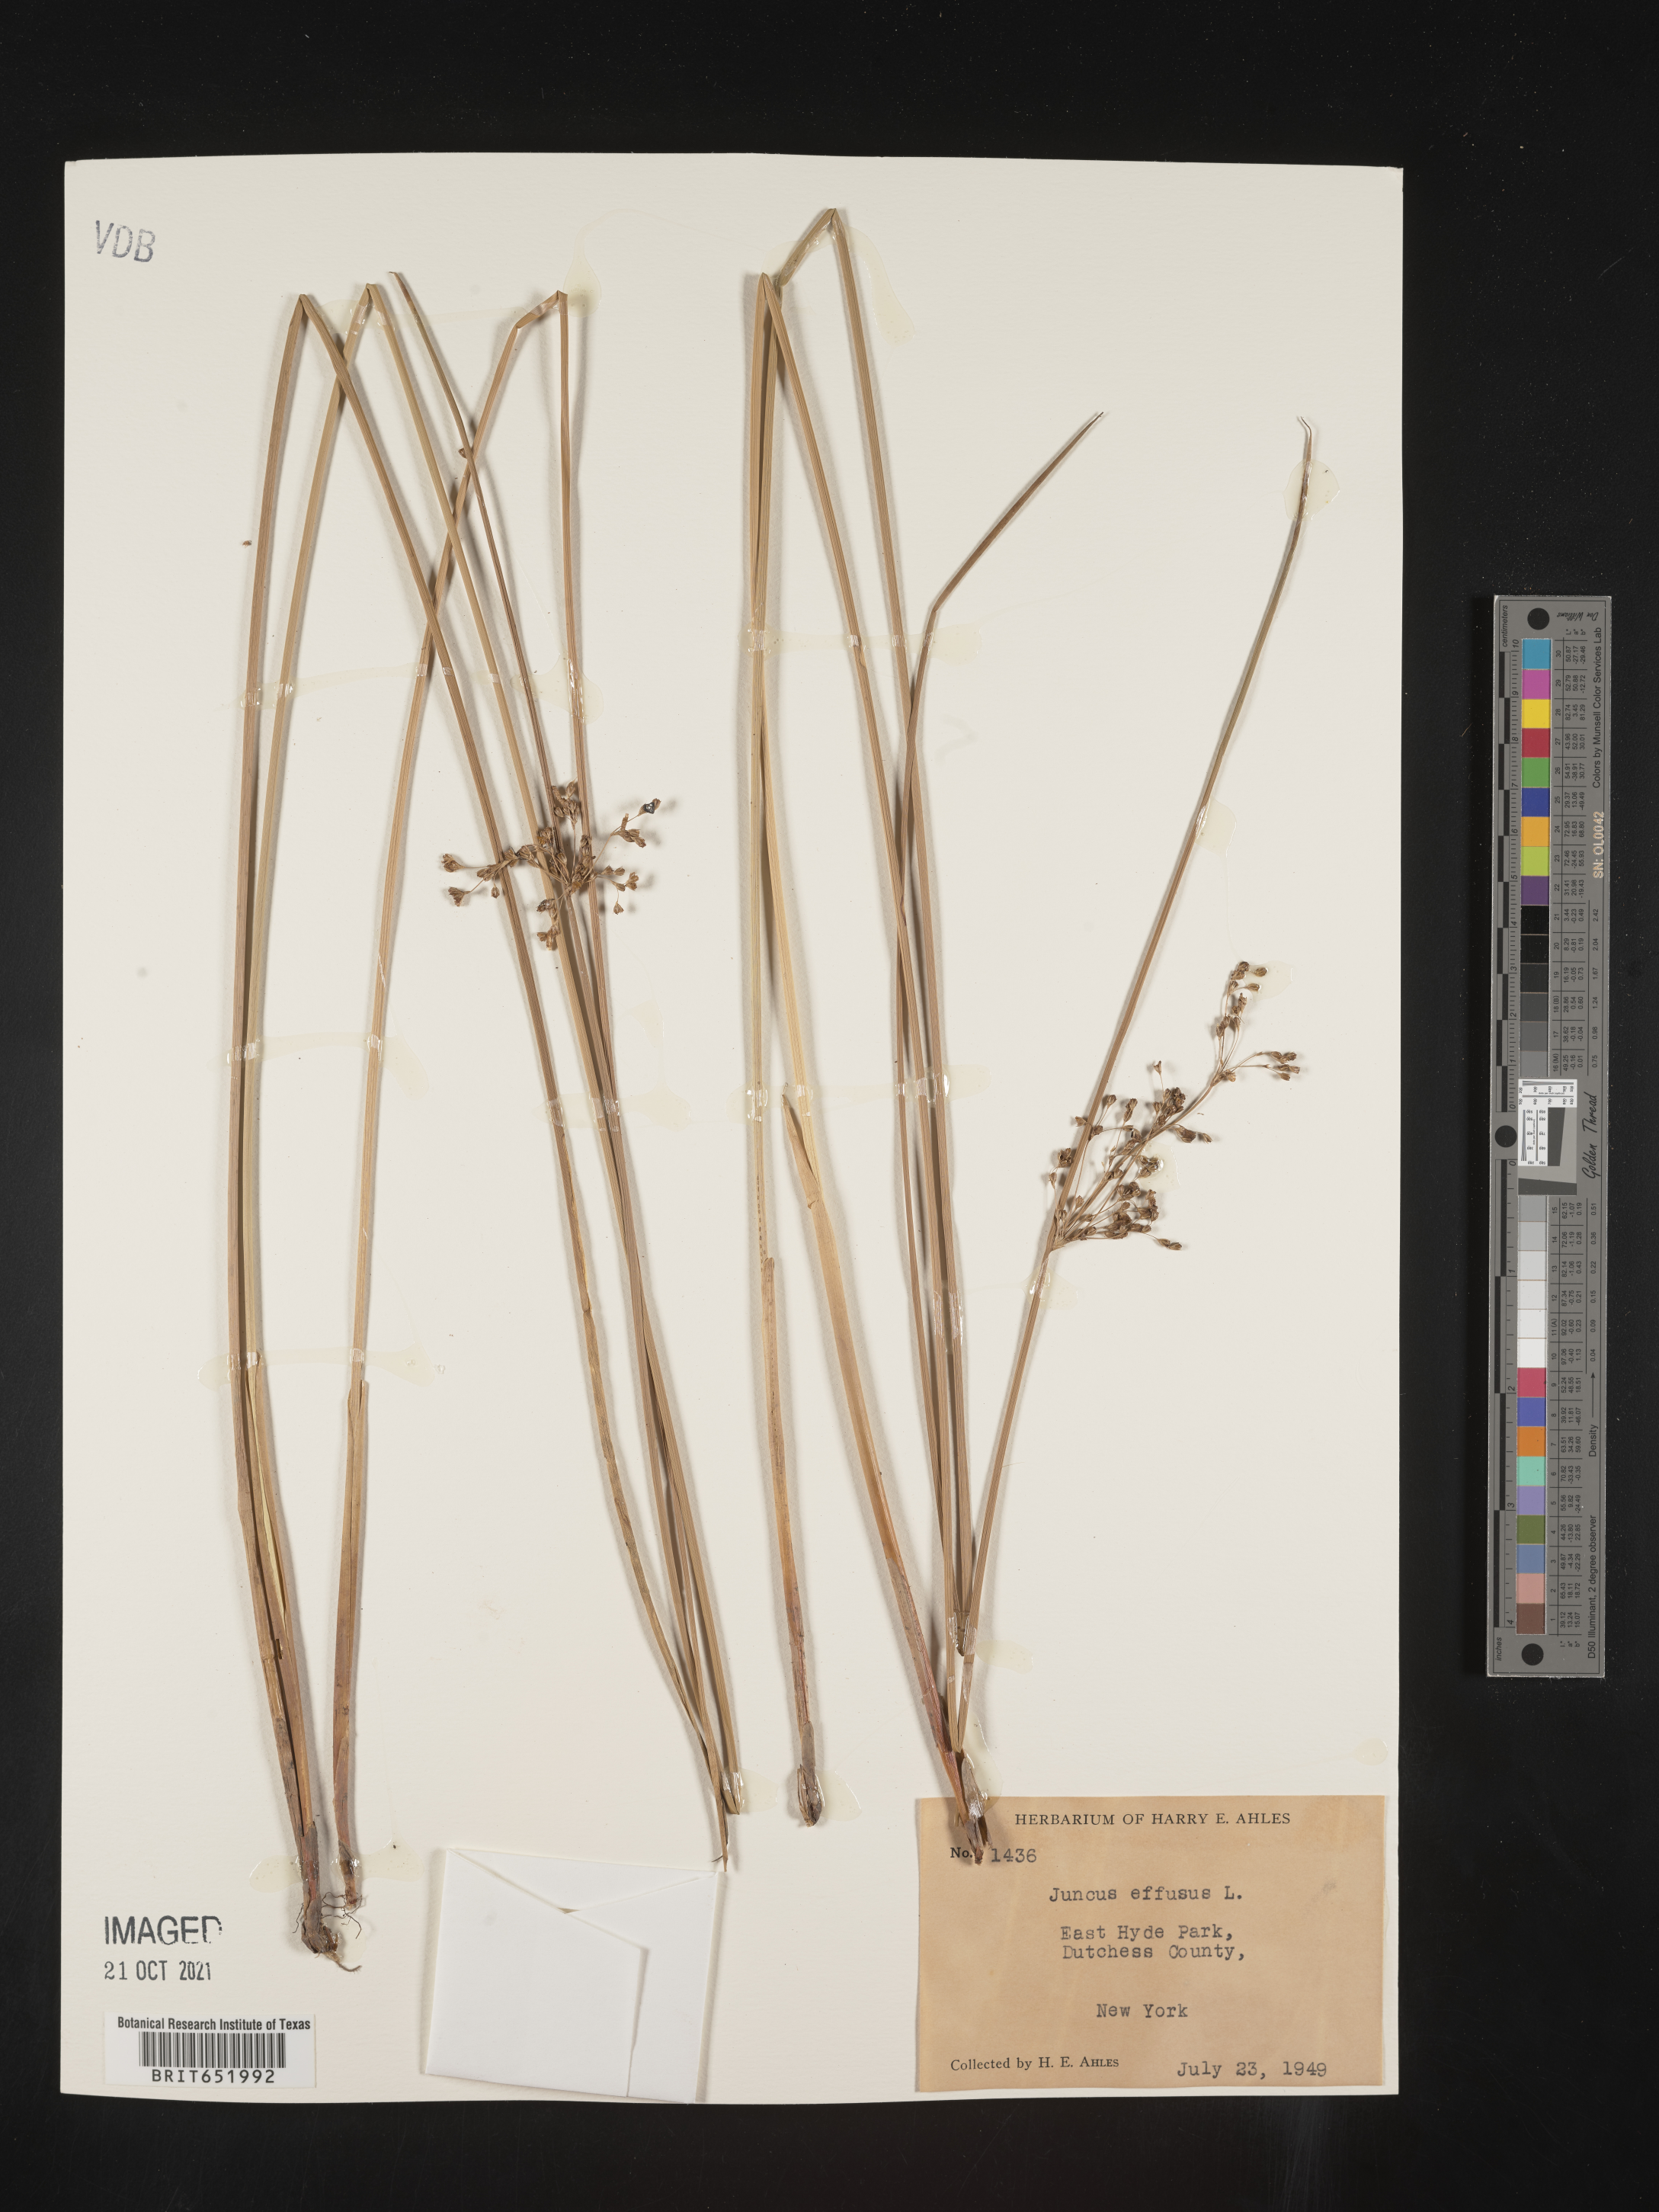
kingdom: Plantae
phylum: Tracheophyta
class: Liliopsida
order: Poales
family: Juncaceae
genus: Juncus
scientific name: Juncus effusus
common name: Soft rush
